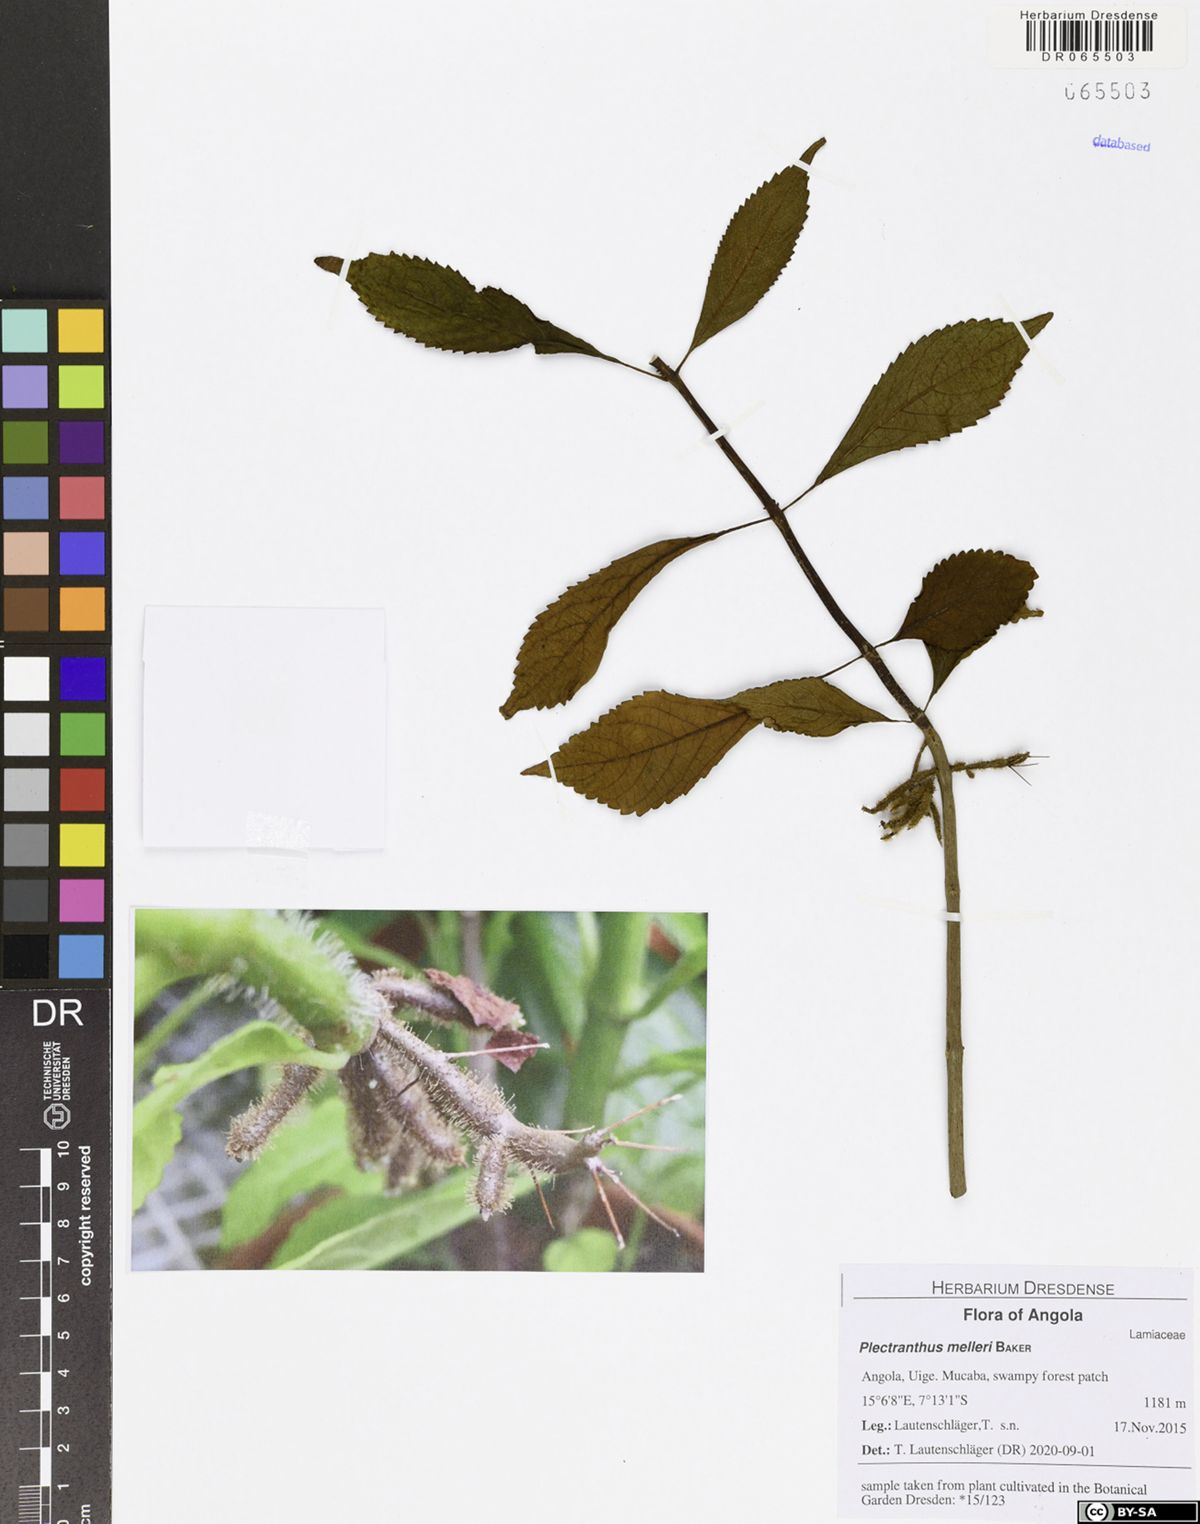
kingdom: Plantae
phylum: Tracheophyta
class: Magnoliopsida
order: Lamiales
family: Lamiaceae
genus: Coleus
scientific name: Coleus melleri
